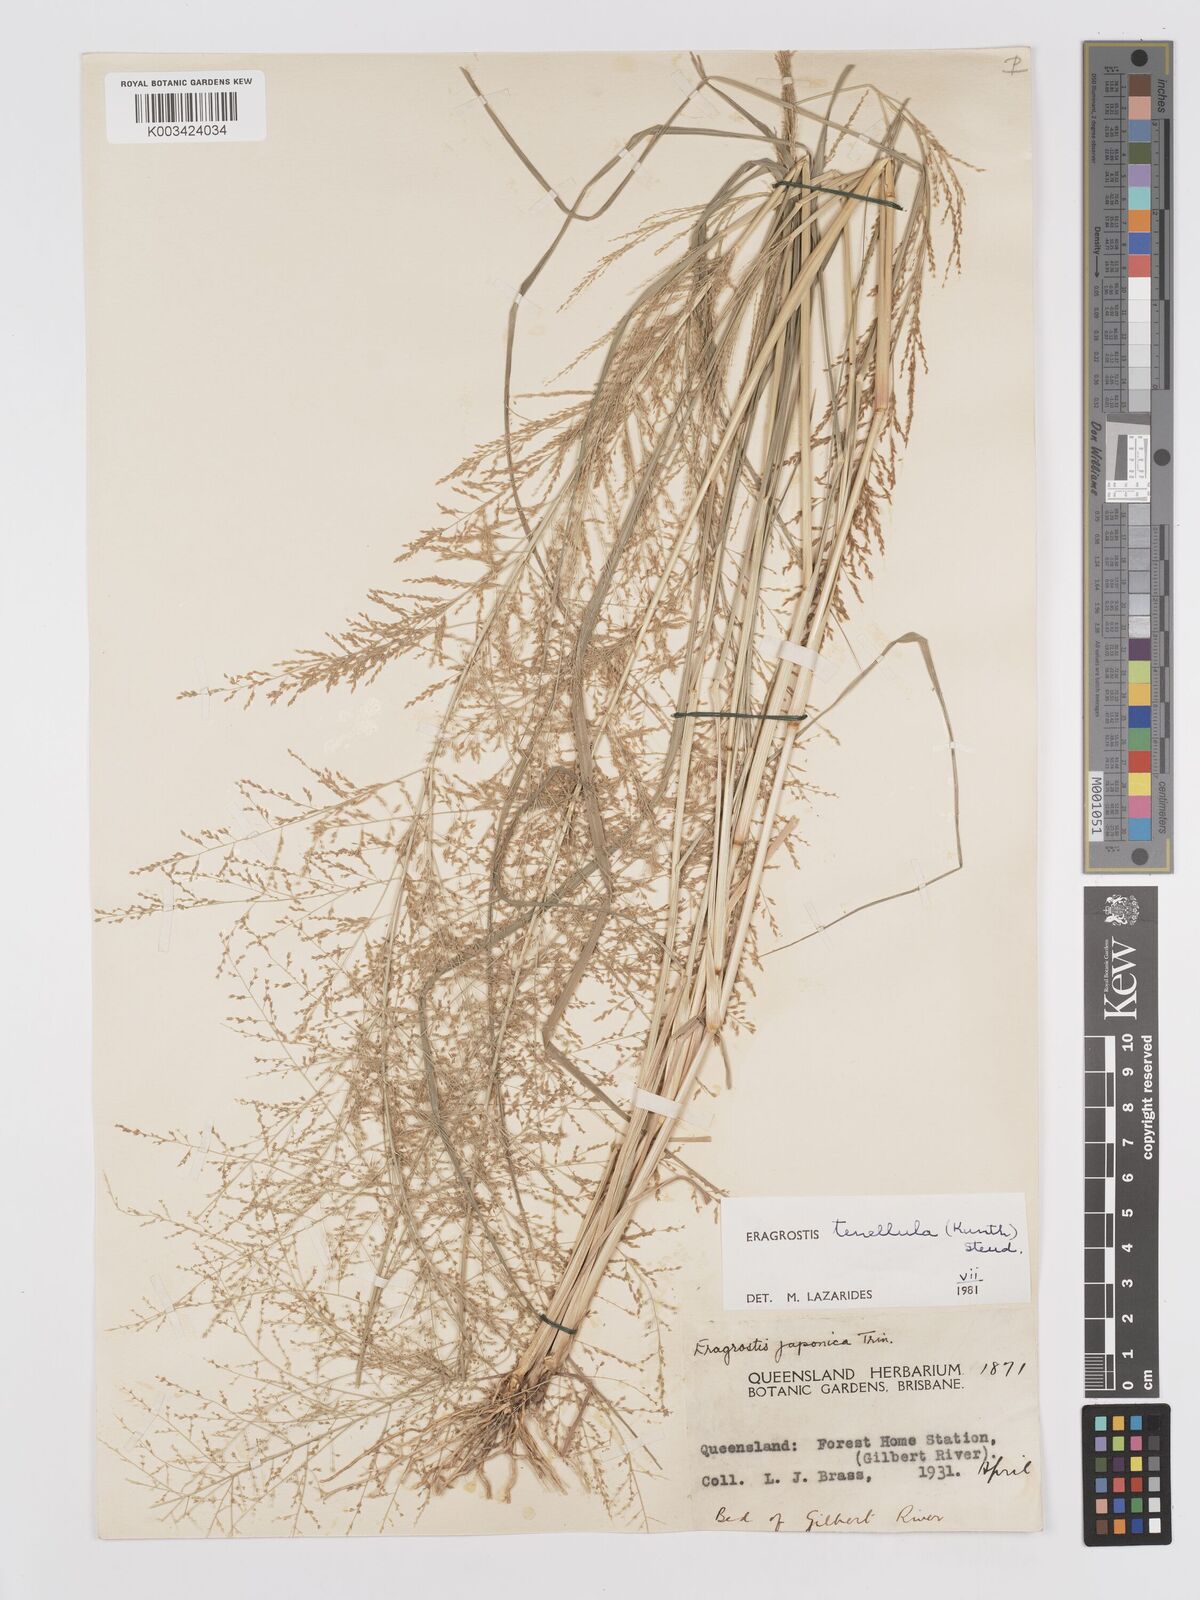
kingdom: Plantae
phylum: Tracheophyta
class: Liliopsida
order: Poales
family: Poaceae
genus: Eragrostis
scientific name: Eragrostis tenellula
